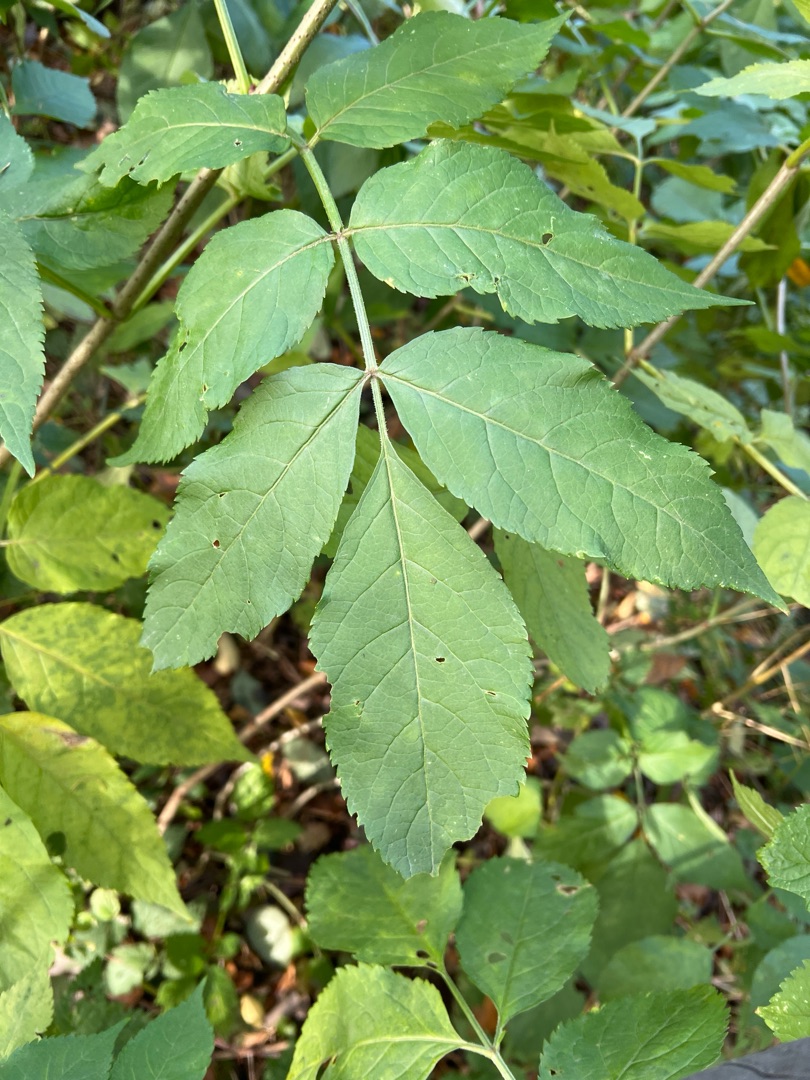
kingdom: Plantae
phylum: Tracheophyta
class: Magnoliopsida
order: Dipsacales
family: Viburnaceae
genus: Sambucus
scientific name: Sambucus nigra
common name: Almindelig hyld
